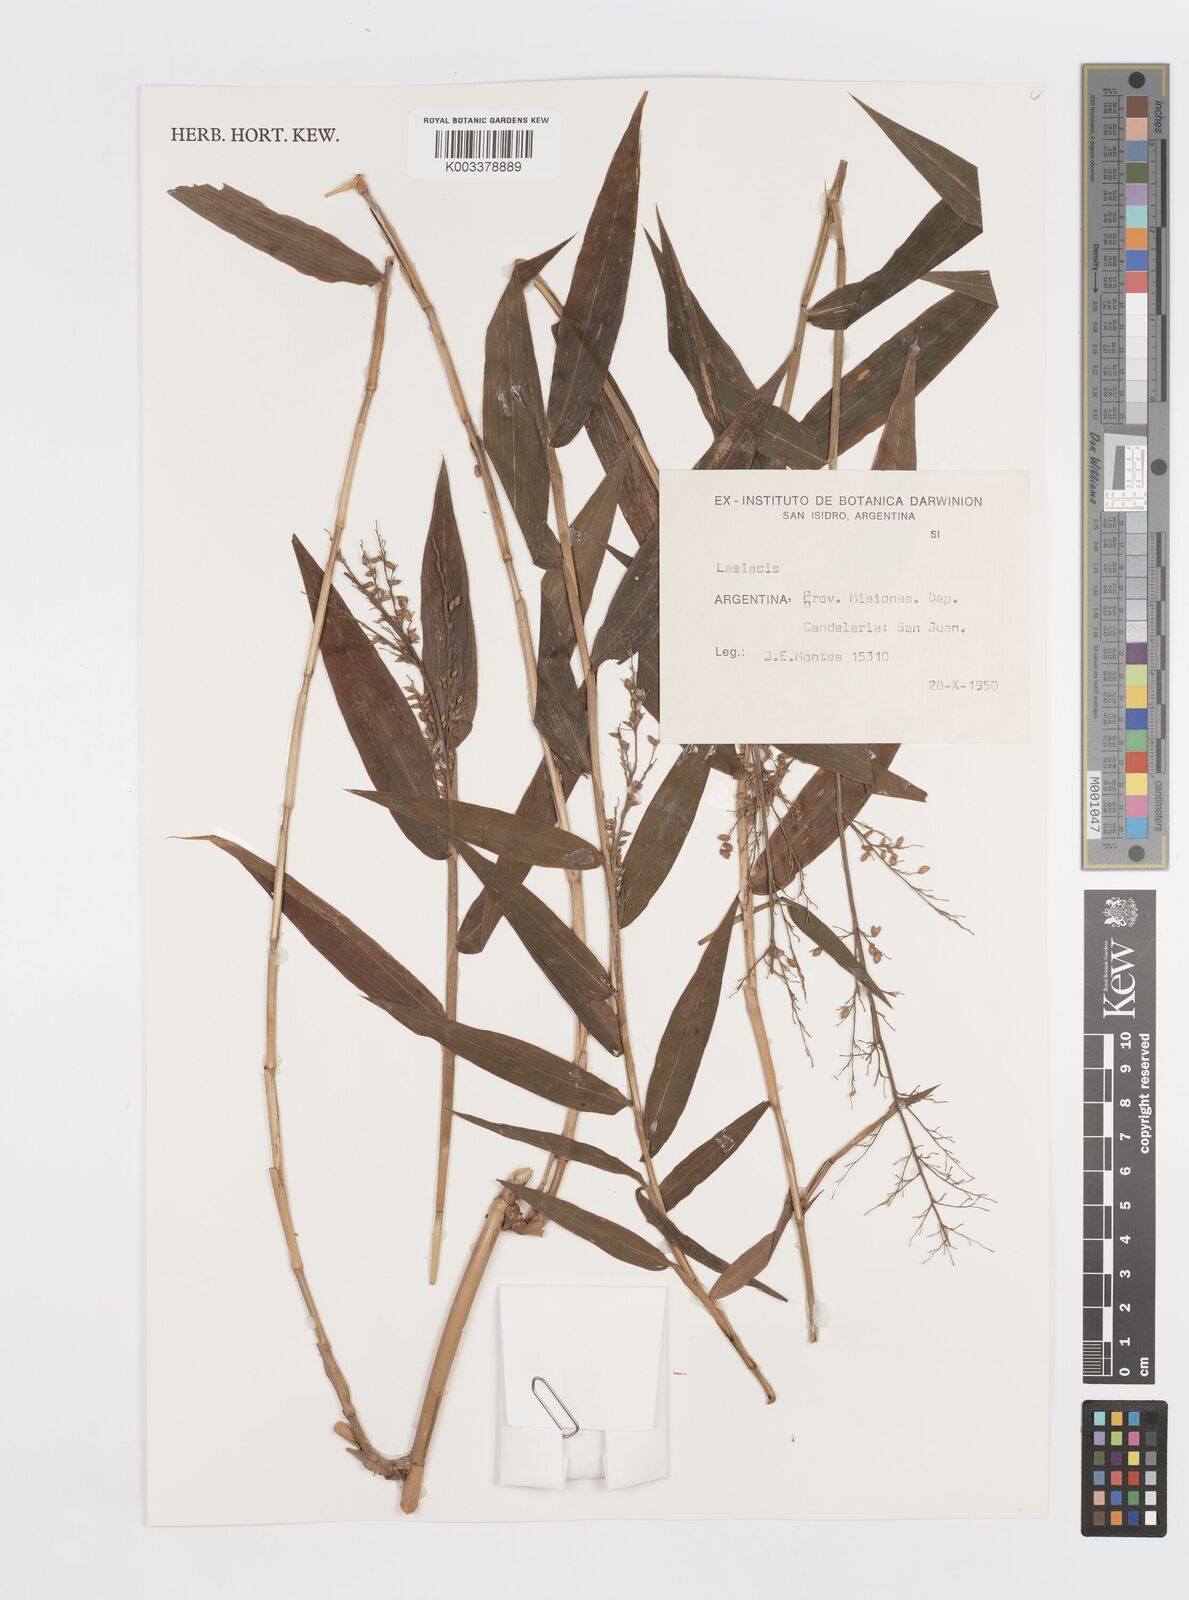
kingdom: Plantae
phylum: Tracheophyta
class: Liliopsida
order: Poales
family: Poaceae
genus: Lasiacis
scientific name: Lasiacis maculata
